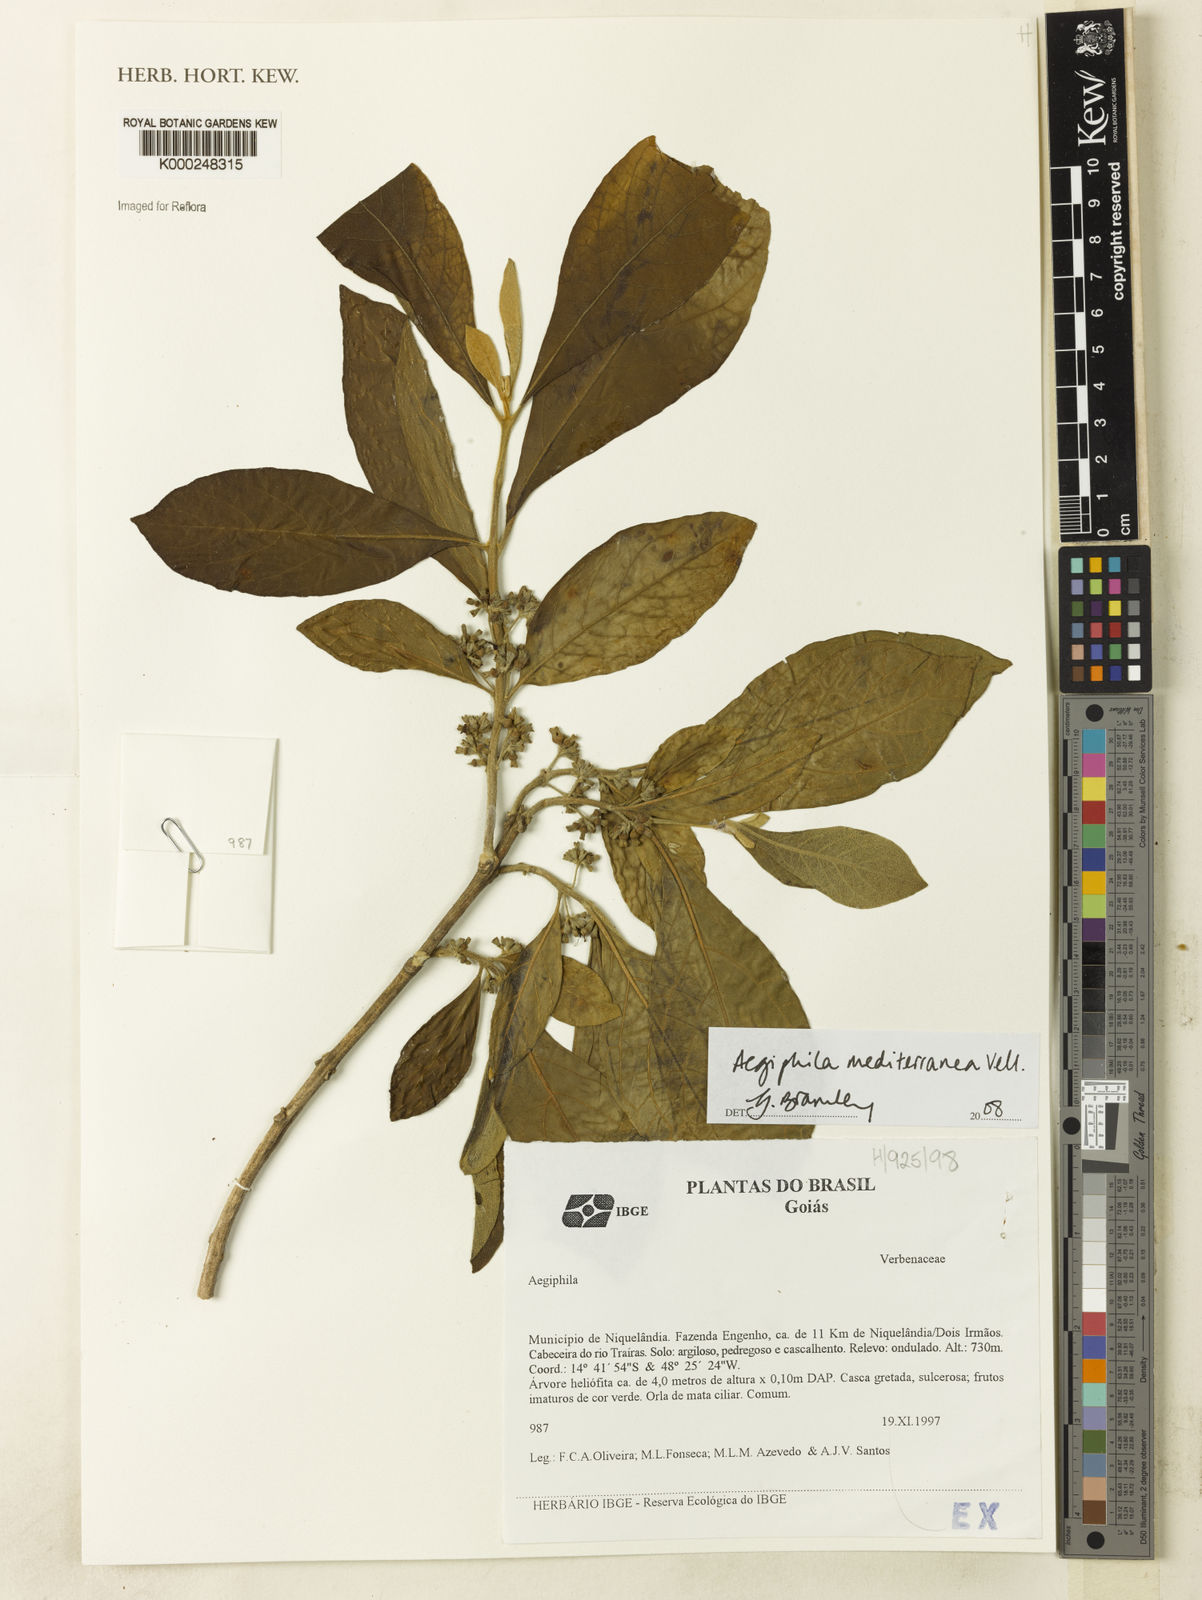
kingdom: Plantae
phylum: Tracheophyta
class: Magnoliopsida
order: Lamiales
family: Lamiaceae
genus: Aegiphila
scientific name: Aegiphila mediterranea
